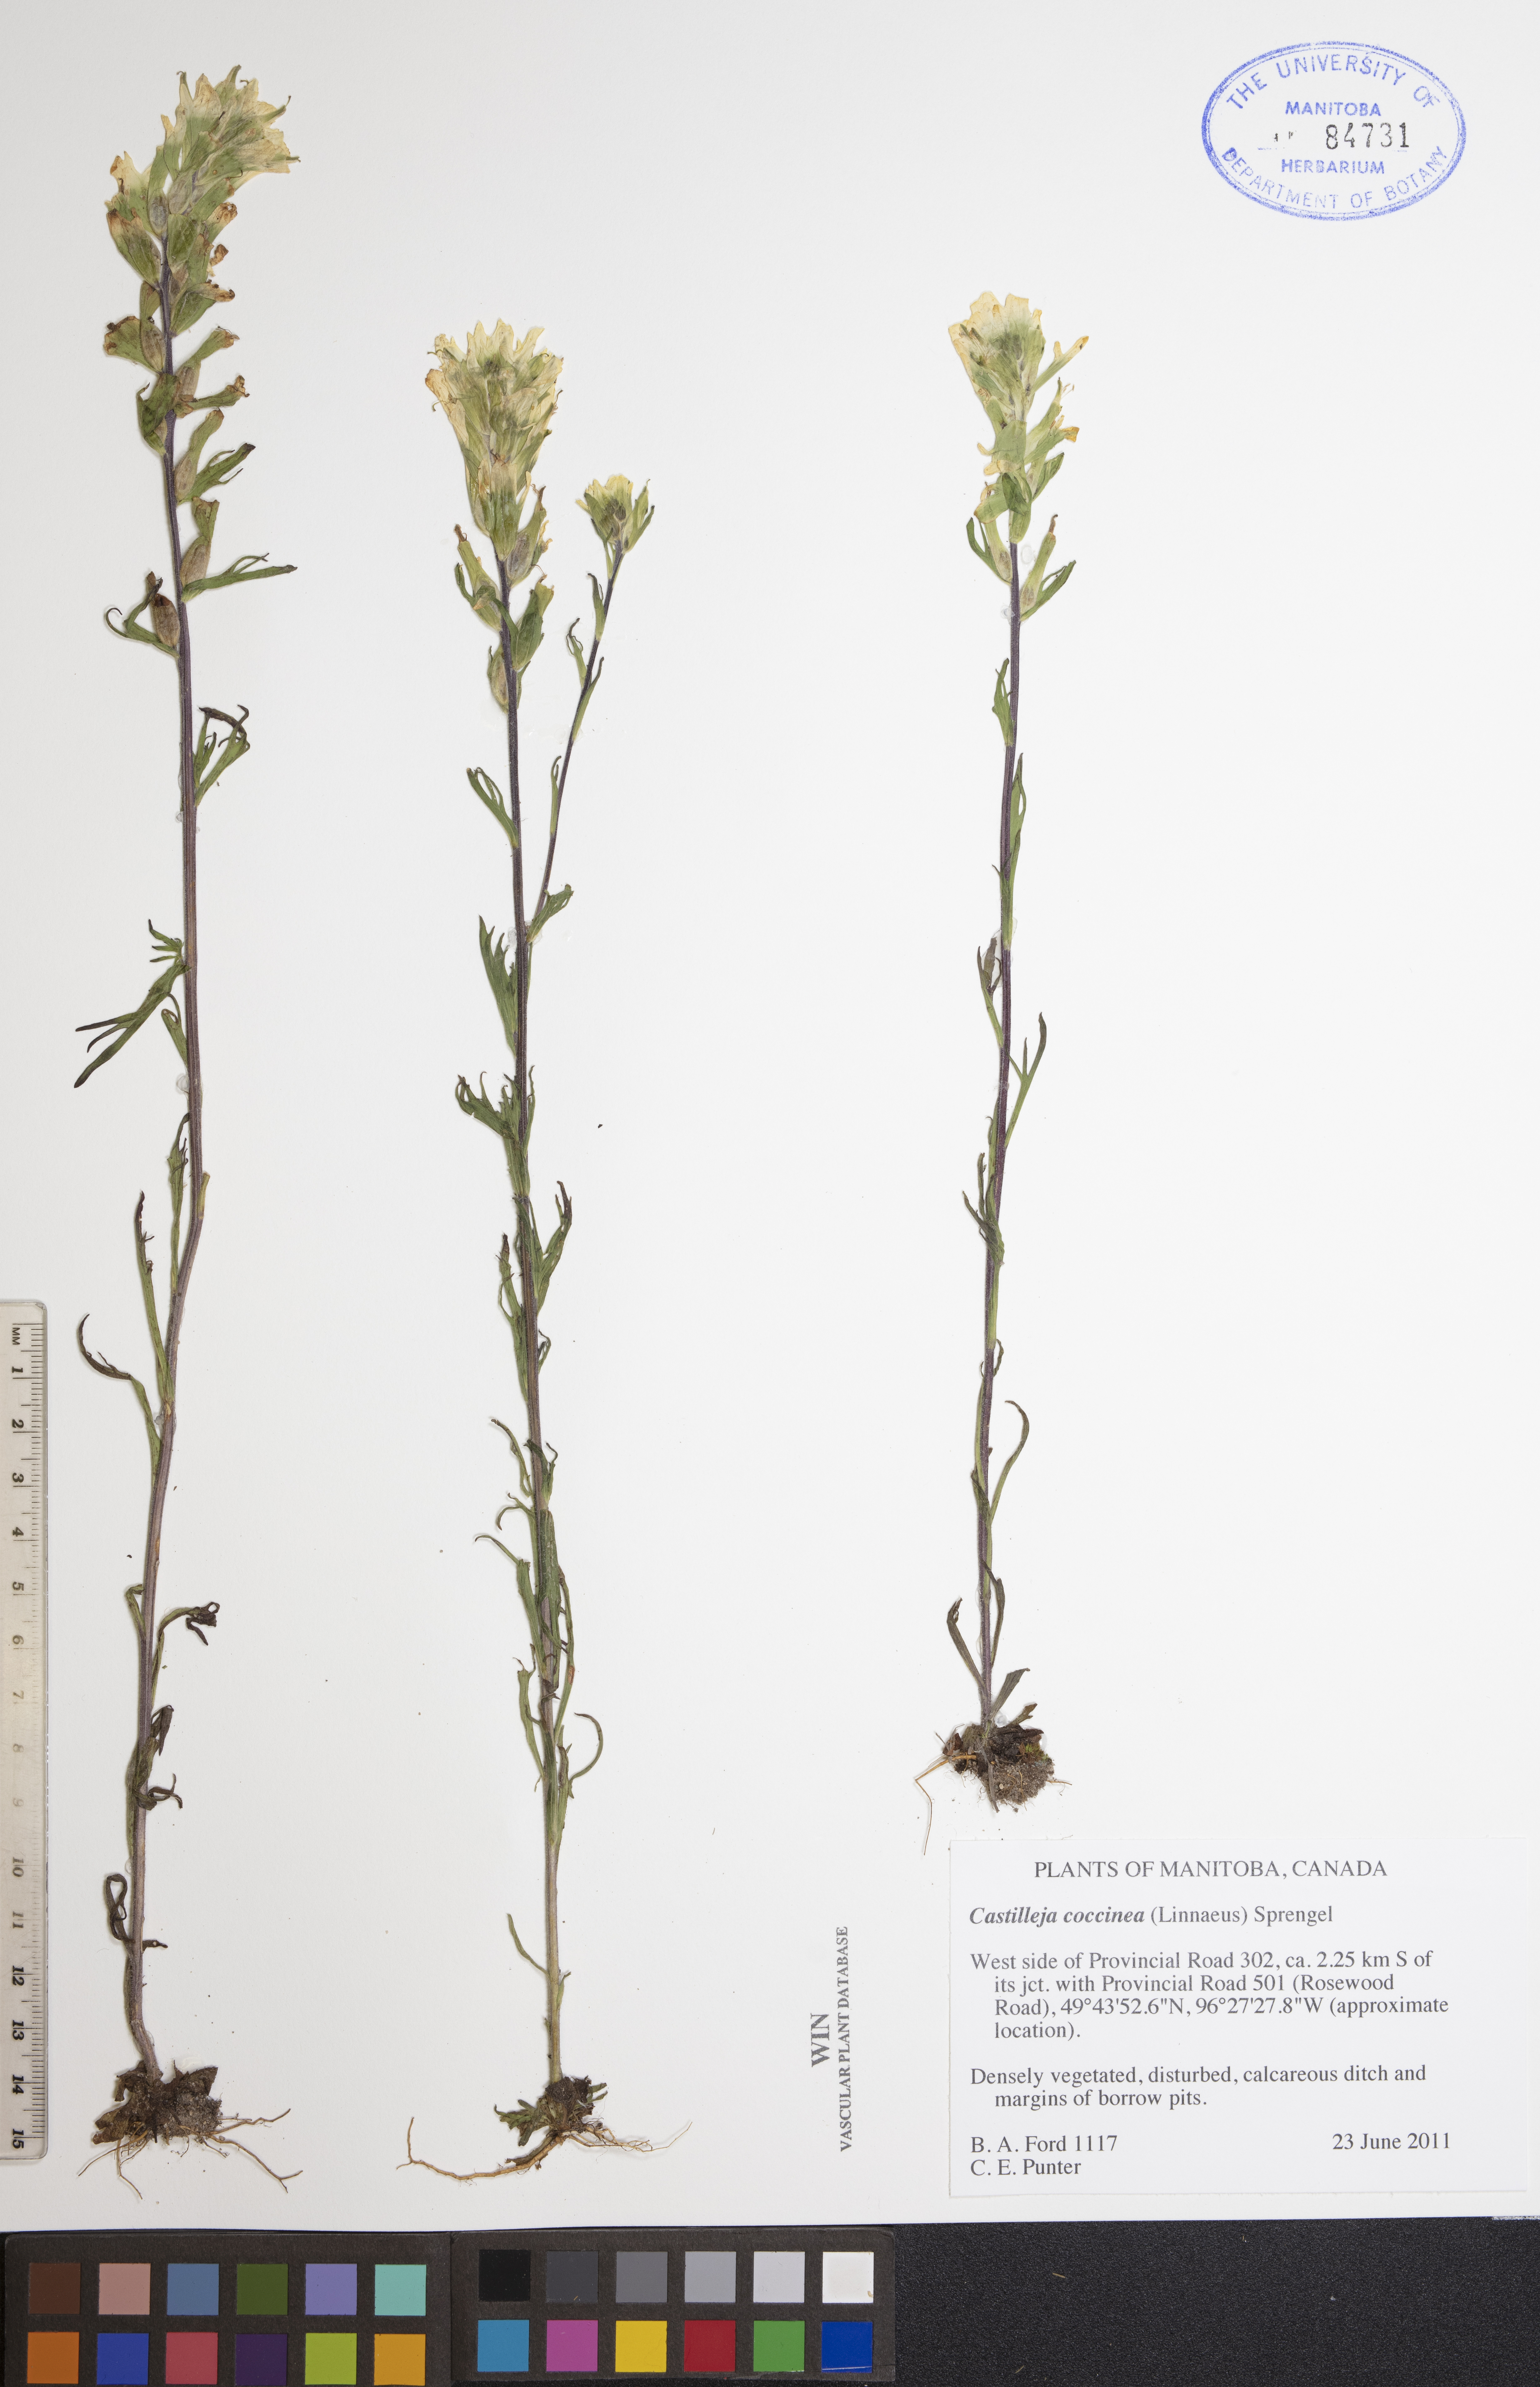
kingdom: Plantae
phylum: Tracheophyta
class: Magnoliopsida
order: Lamiales
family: Orobanchaceae
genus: Castilleja
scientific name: Castilleja coccinea
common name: Scarlet paintbrush
